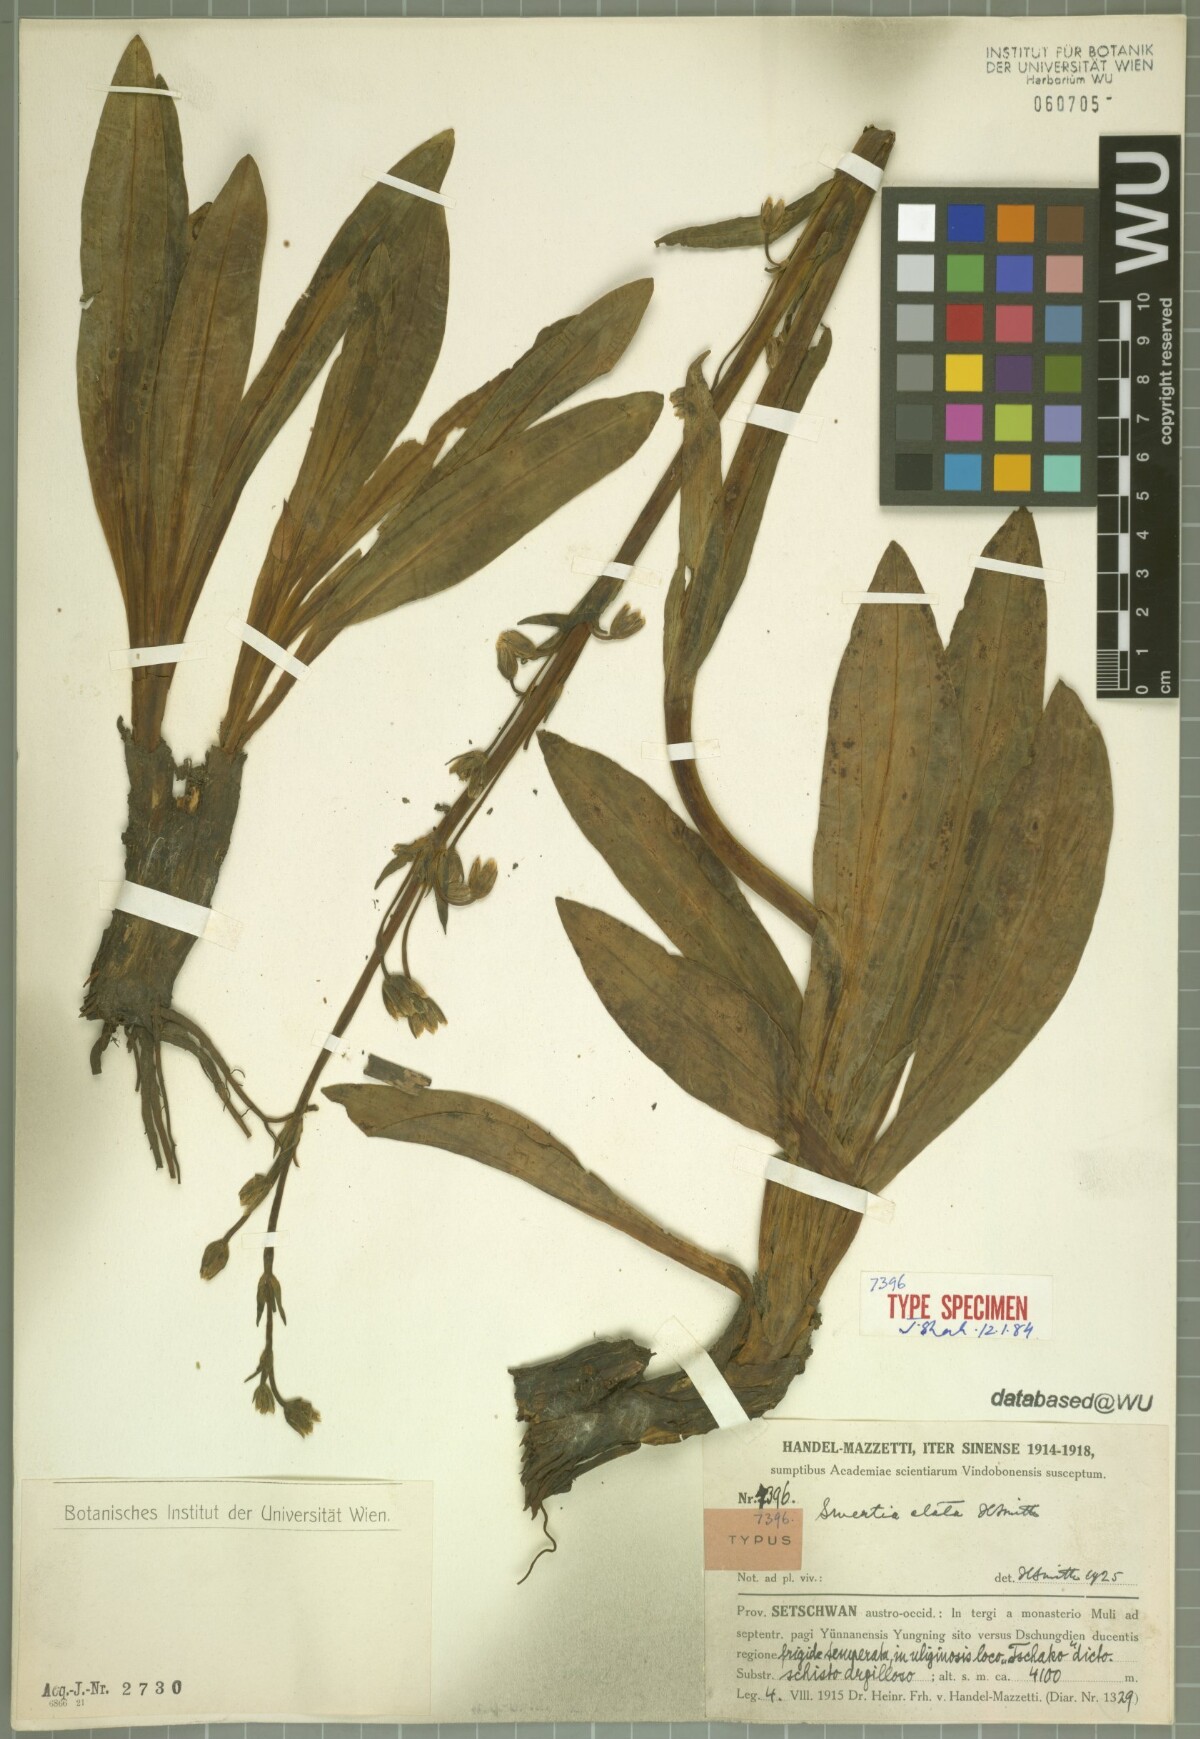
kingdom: Plantae
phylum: Tracheophyta
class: Magnoliopsida
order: Gentianales
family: Gentianaceae
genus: Swertia
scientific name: Swertia elata
